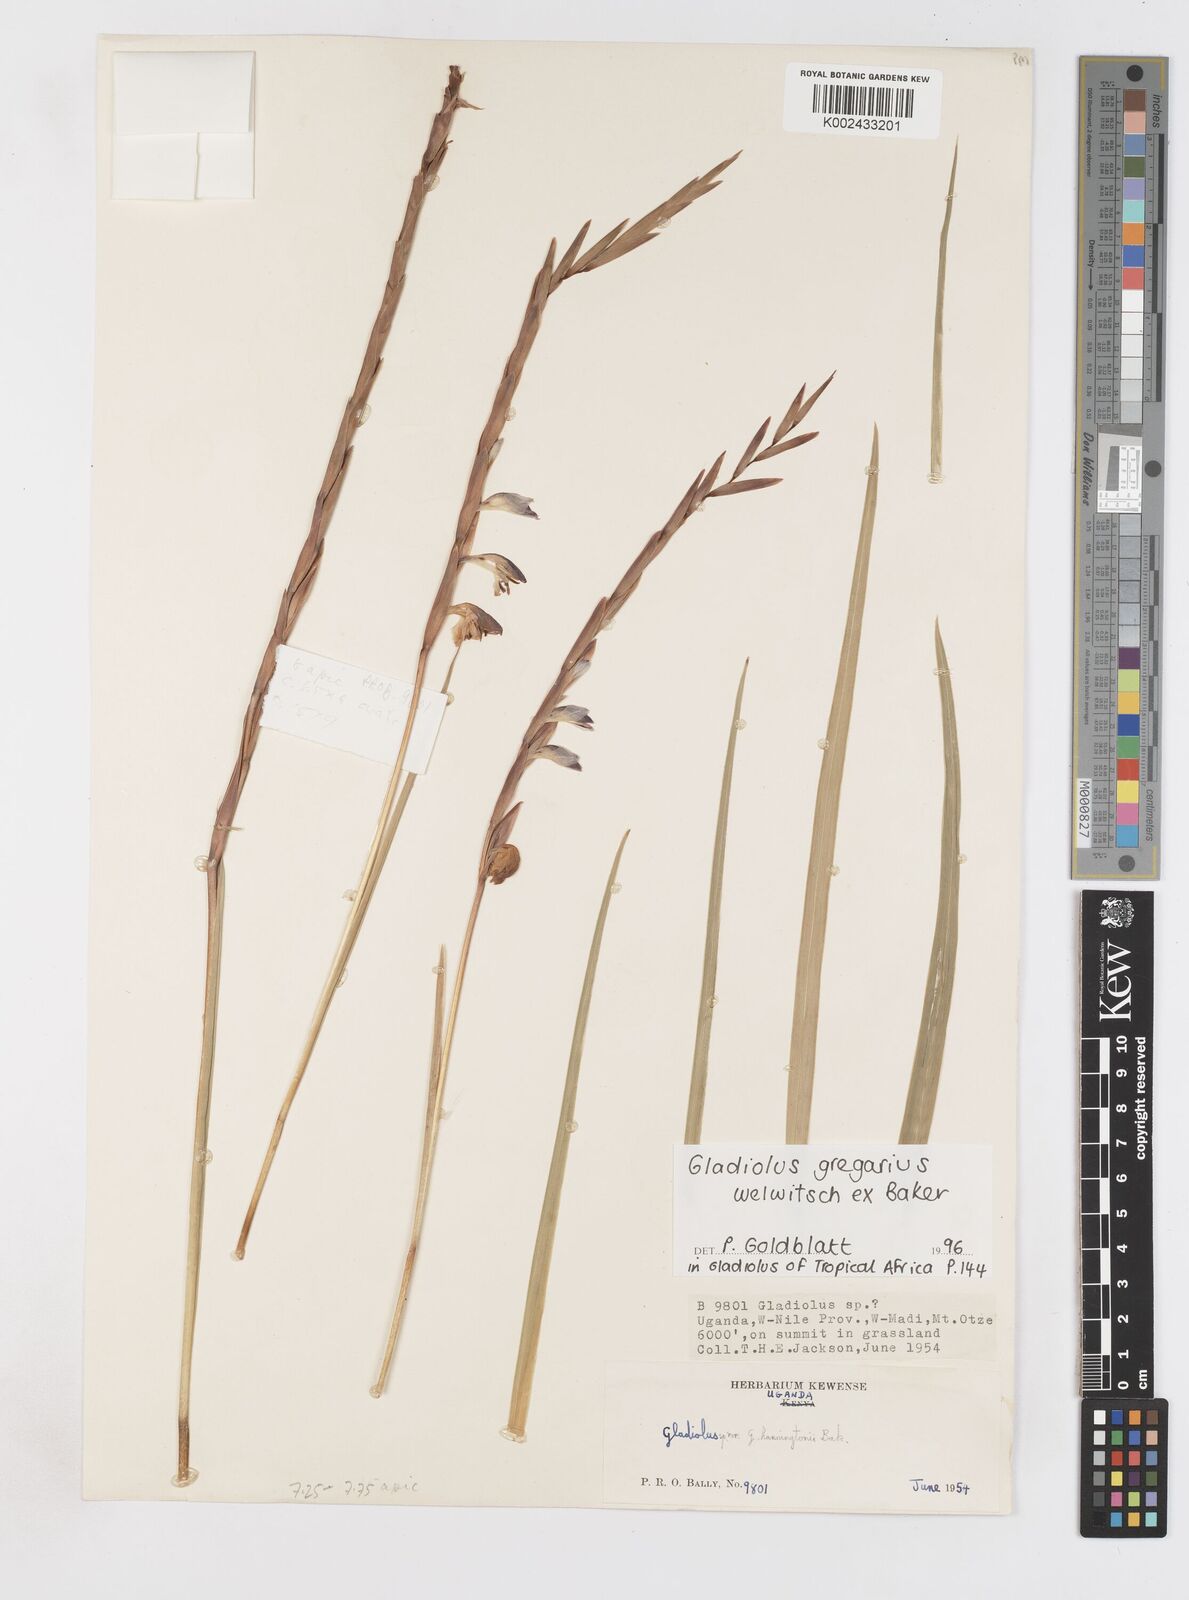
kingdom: Plantae
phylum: Tracheophyta
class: Liliopsida
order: Asparagales
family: Iridaceae
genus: Gladiolus
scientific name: Gladiolus gregarius
